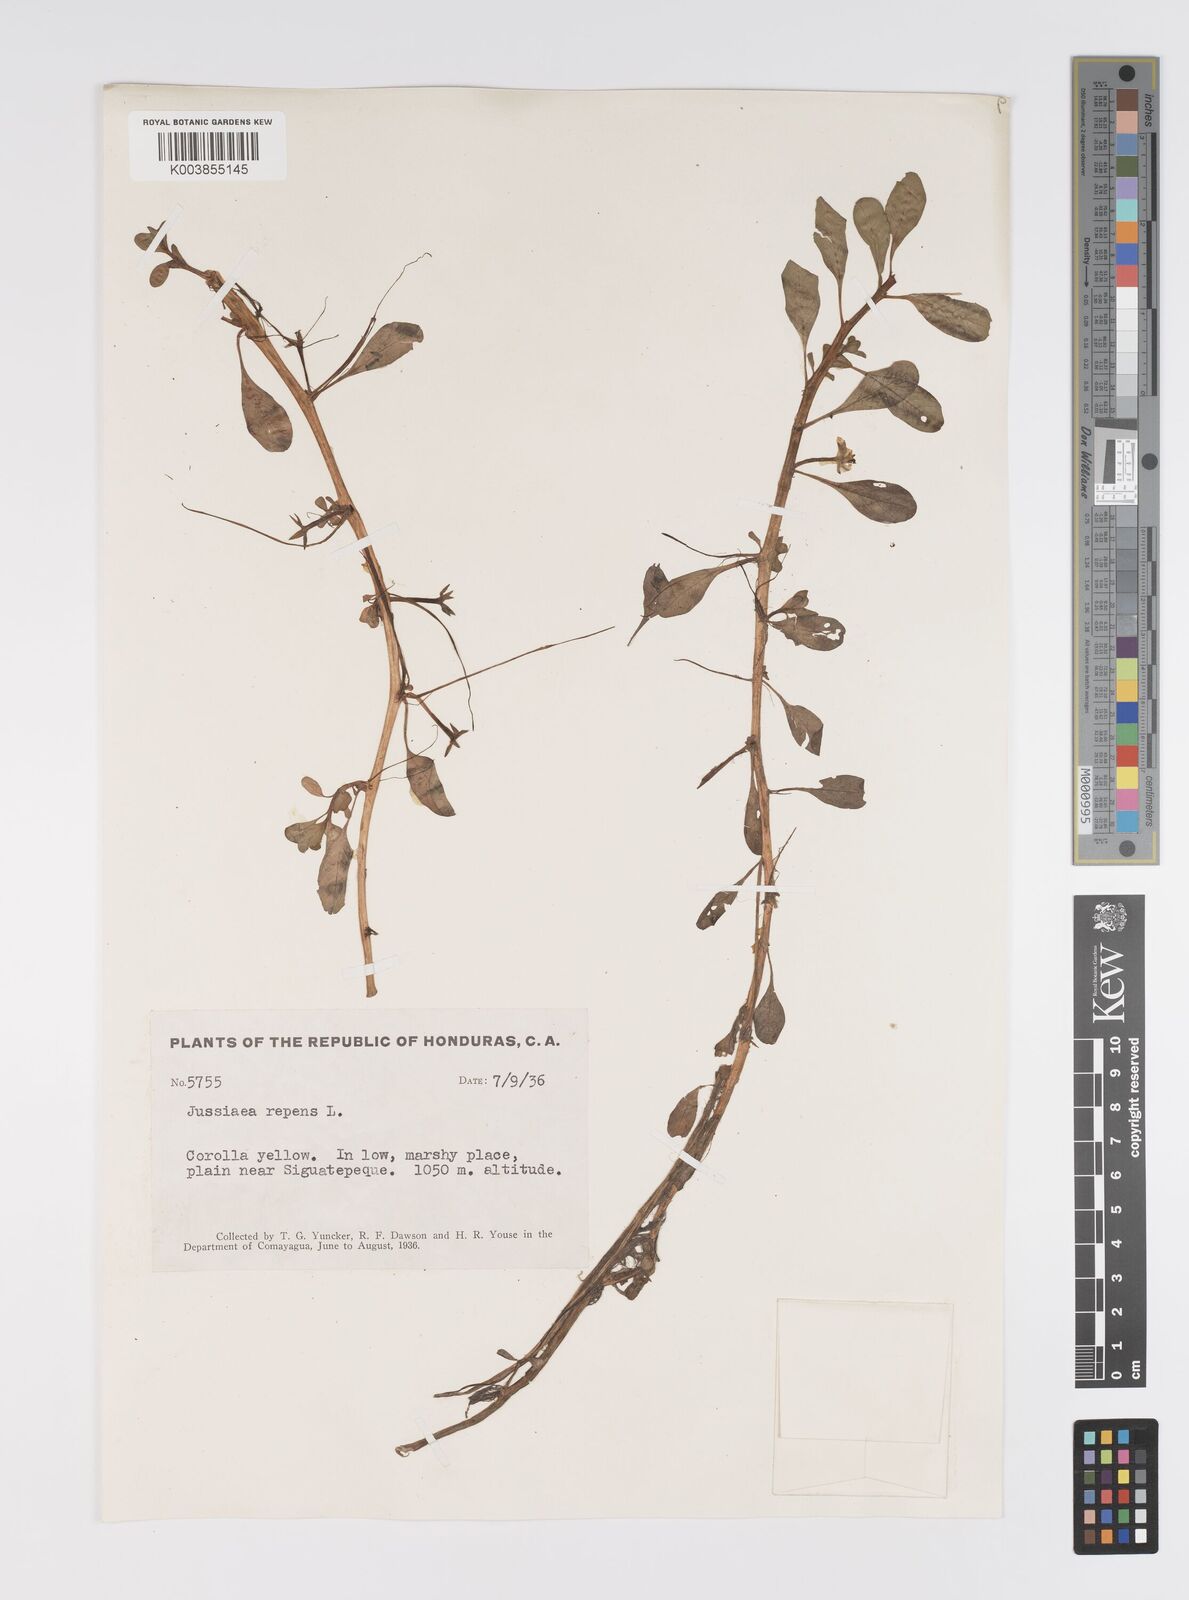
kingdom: Plantae
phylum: Tracheophyta
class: Magnoliopsida
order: Myrtales
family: Onagraceae
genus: Ludwigia
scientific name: Ludwigia adscendens
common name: Creeping water primrose
